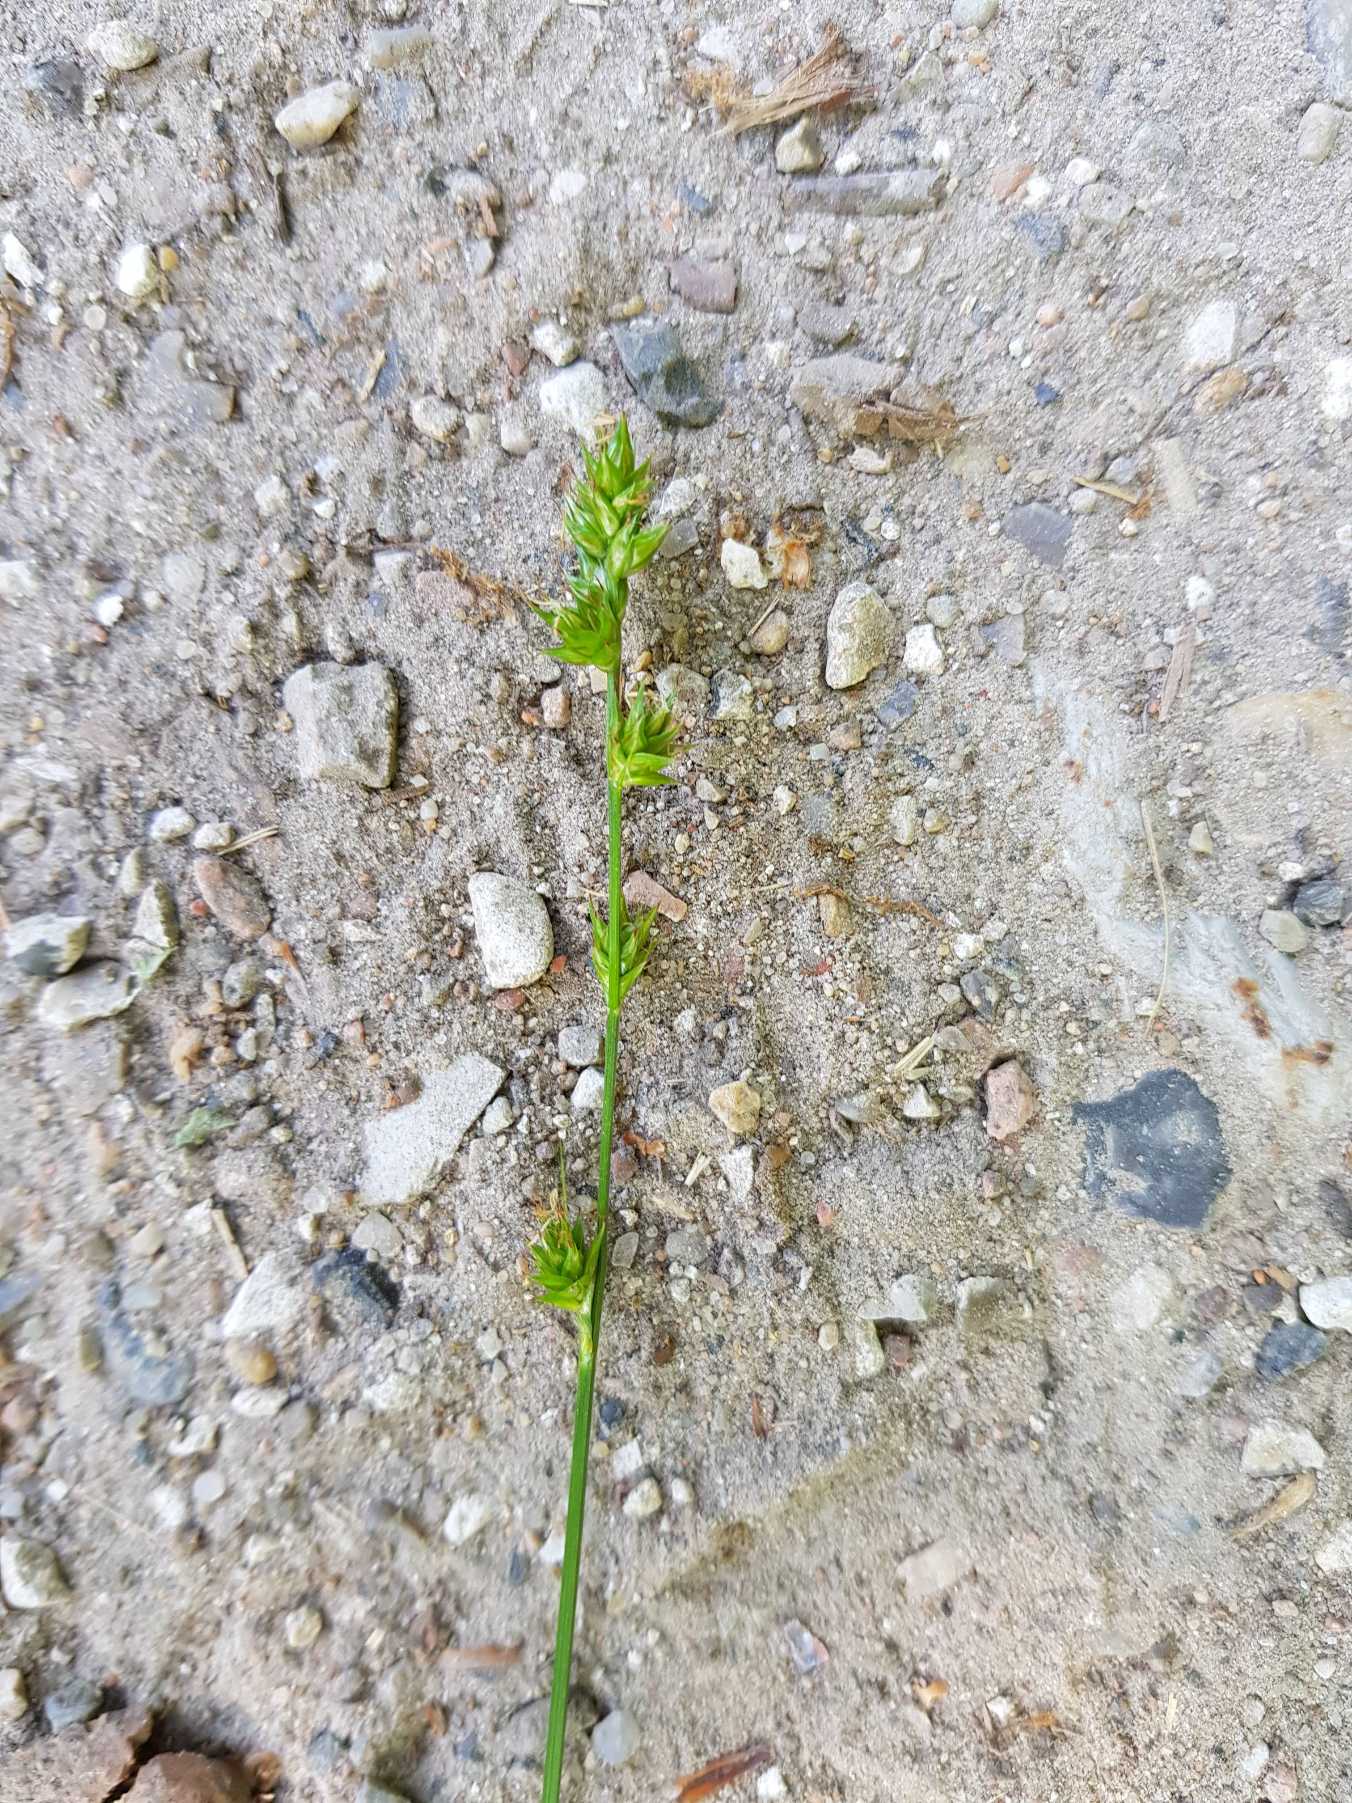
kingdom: Plantae
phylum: Tracheophyta
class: Liliopsida
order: Poales
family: Cyperaceae
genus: Carex
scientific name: Carex divulsa
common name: Mellembrudt star
